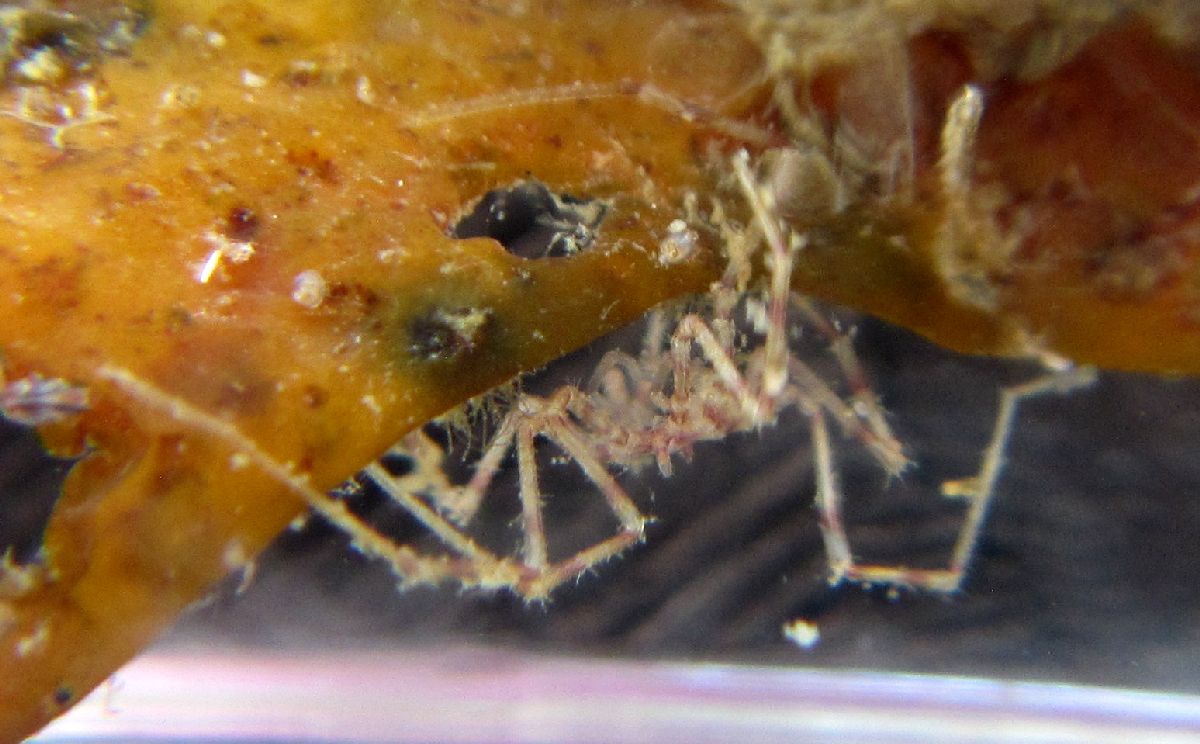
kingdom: Animalia
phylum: Arthropoda
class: Pycnogonida
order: Pantopoda
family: Nymphonidae
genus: Nymphon
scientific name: Nymphon brevirostre
